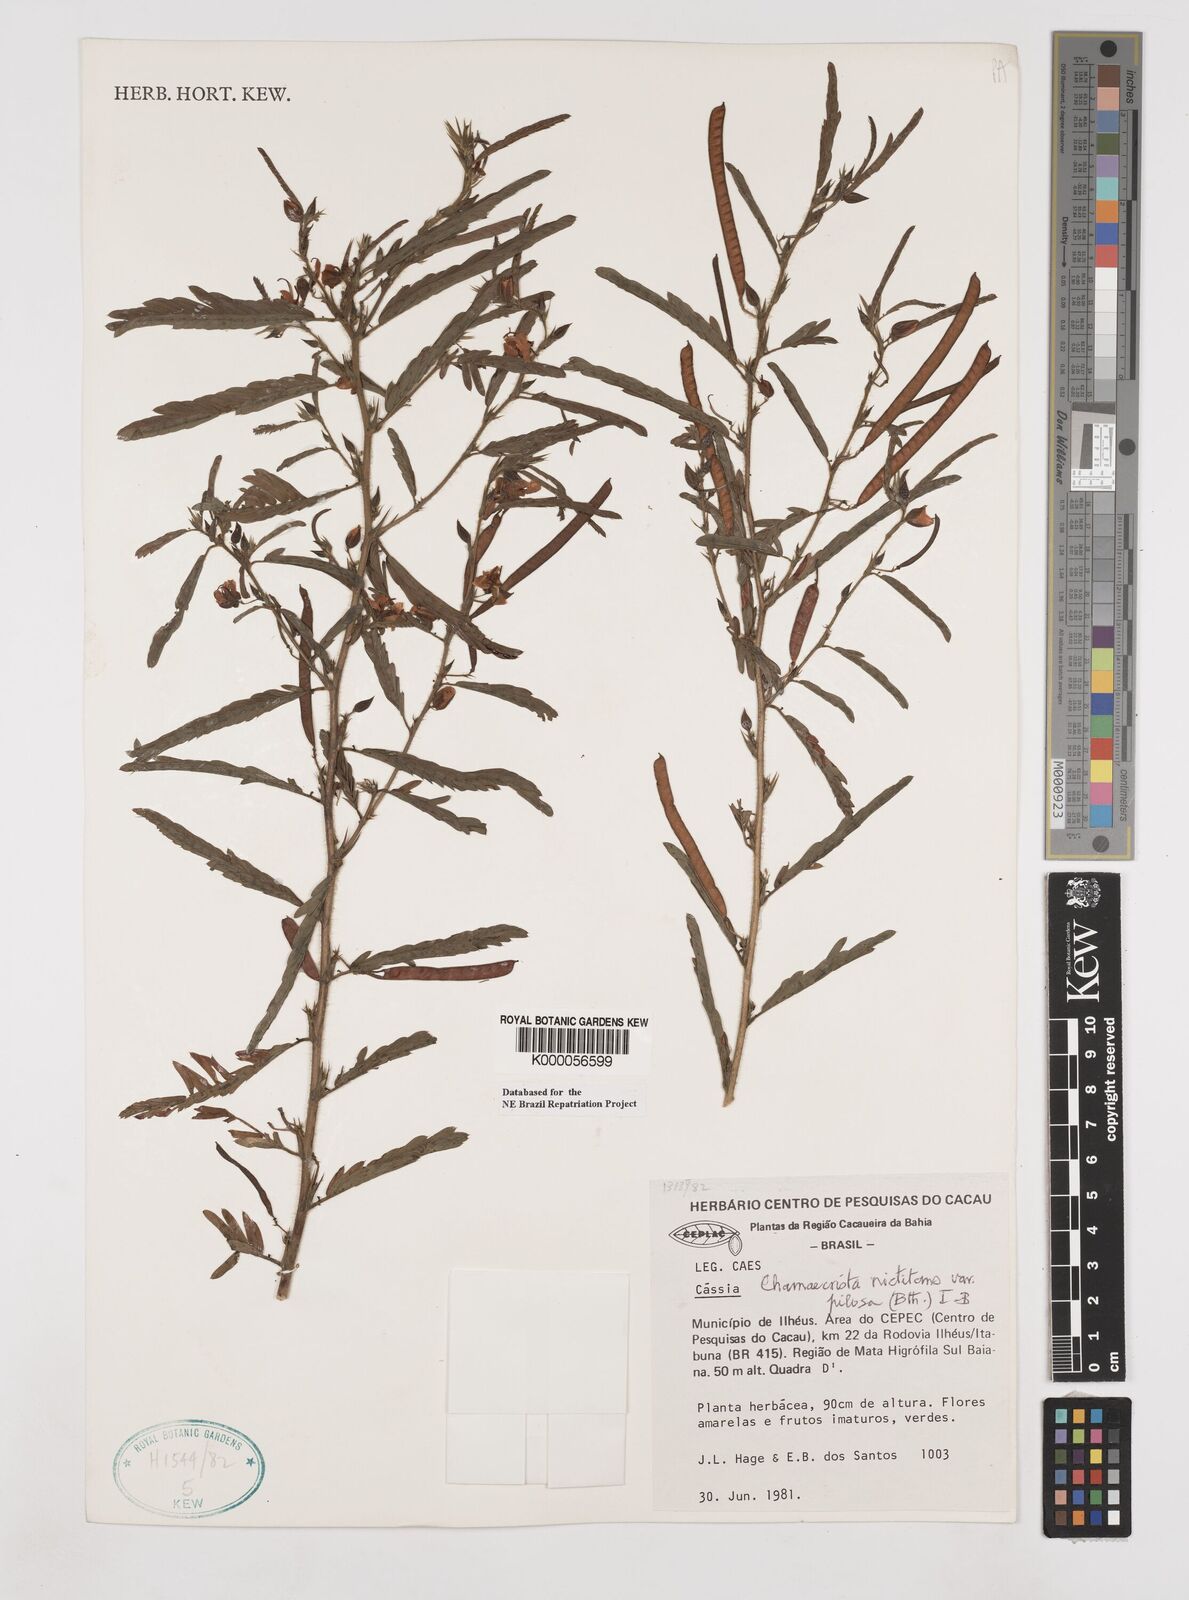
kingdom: Plantae
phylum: Tracheophyta
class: Magnoliopsida
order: Fabales
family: Fabaceae
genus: Chamaecrista
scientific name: Chamaecrista nictitans
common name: Sensitive cassia
